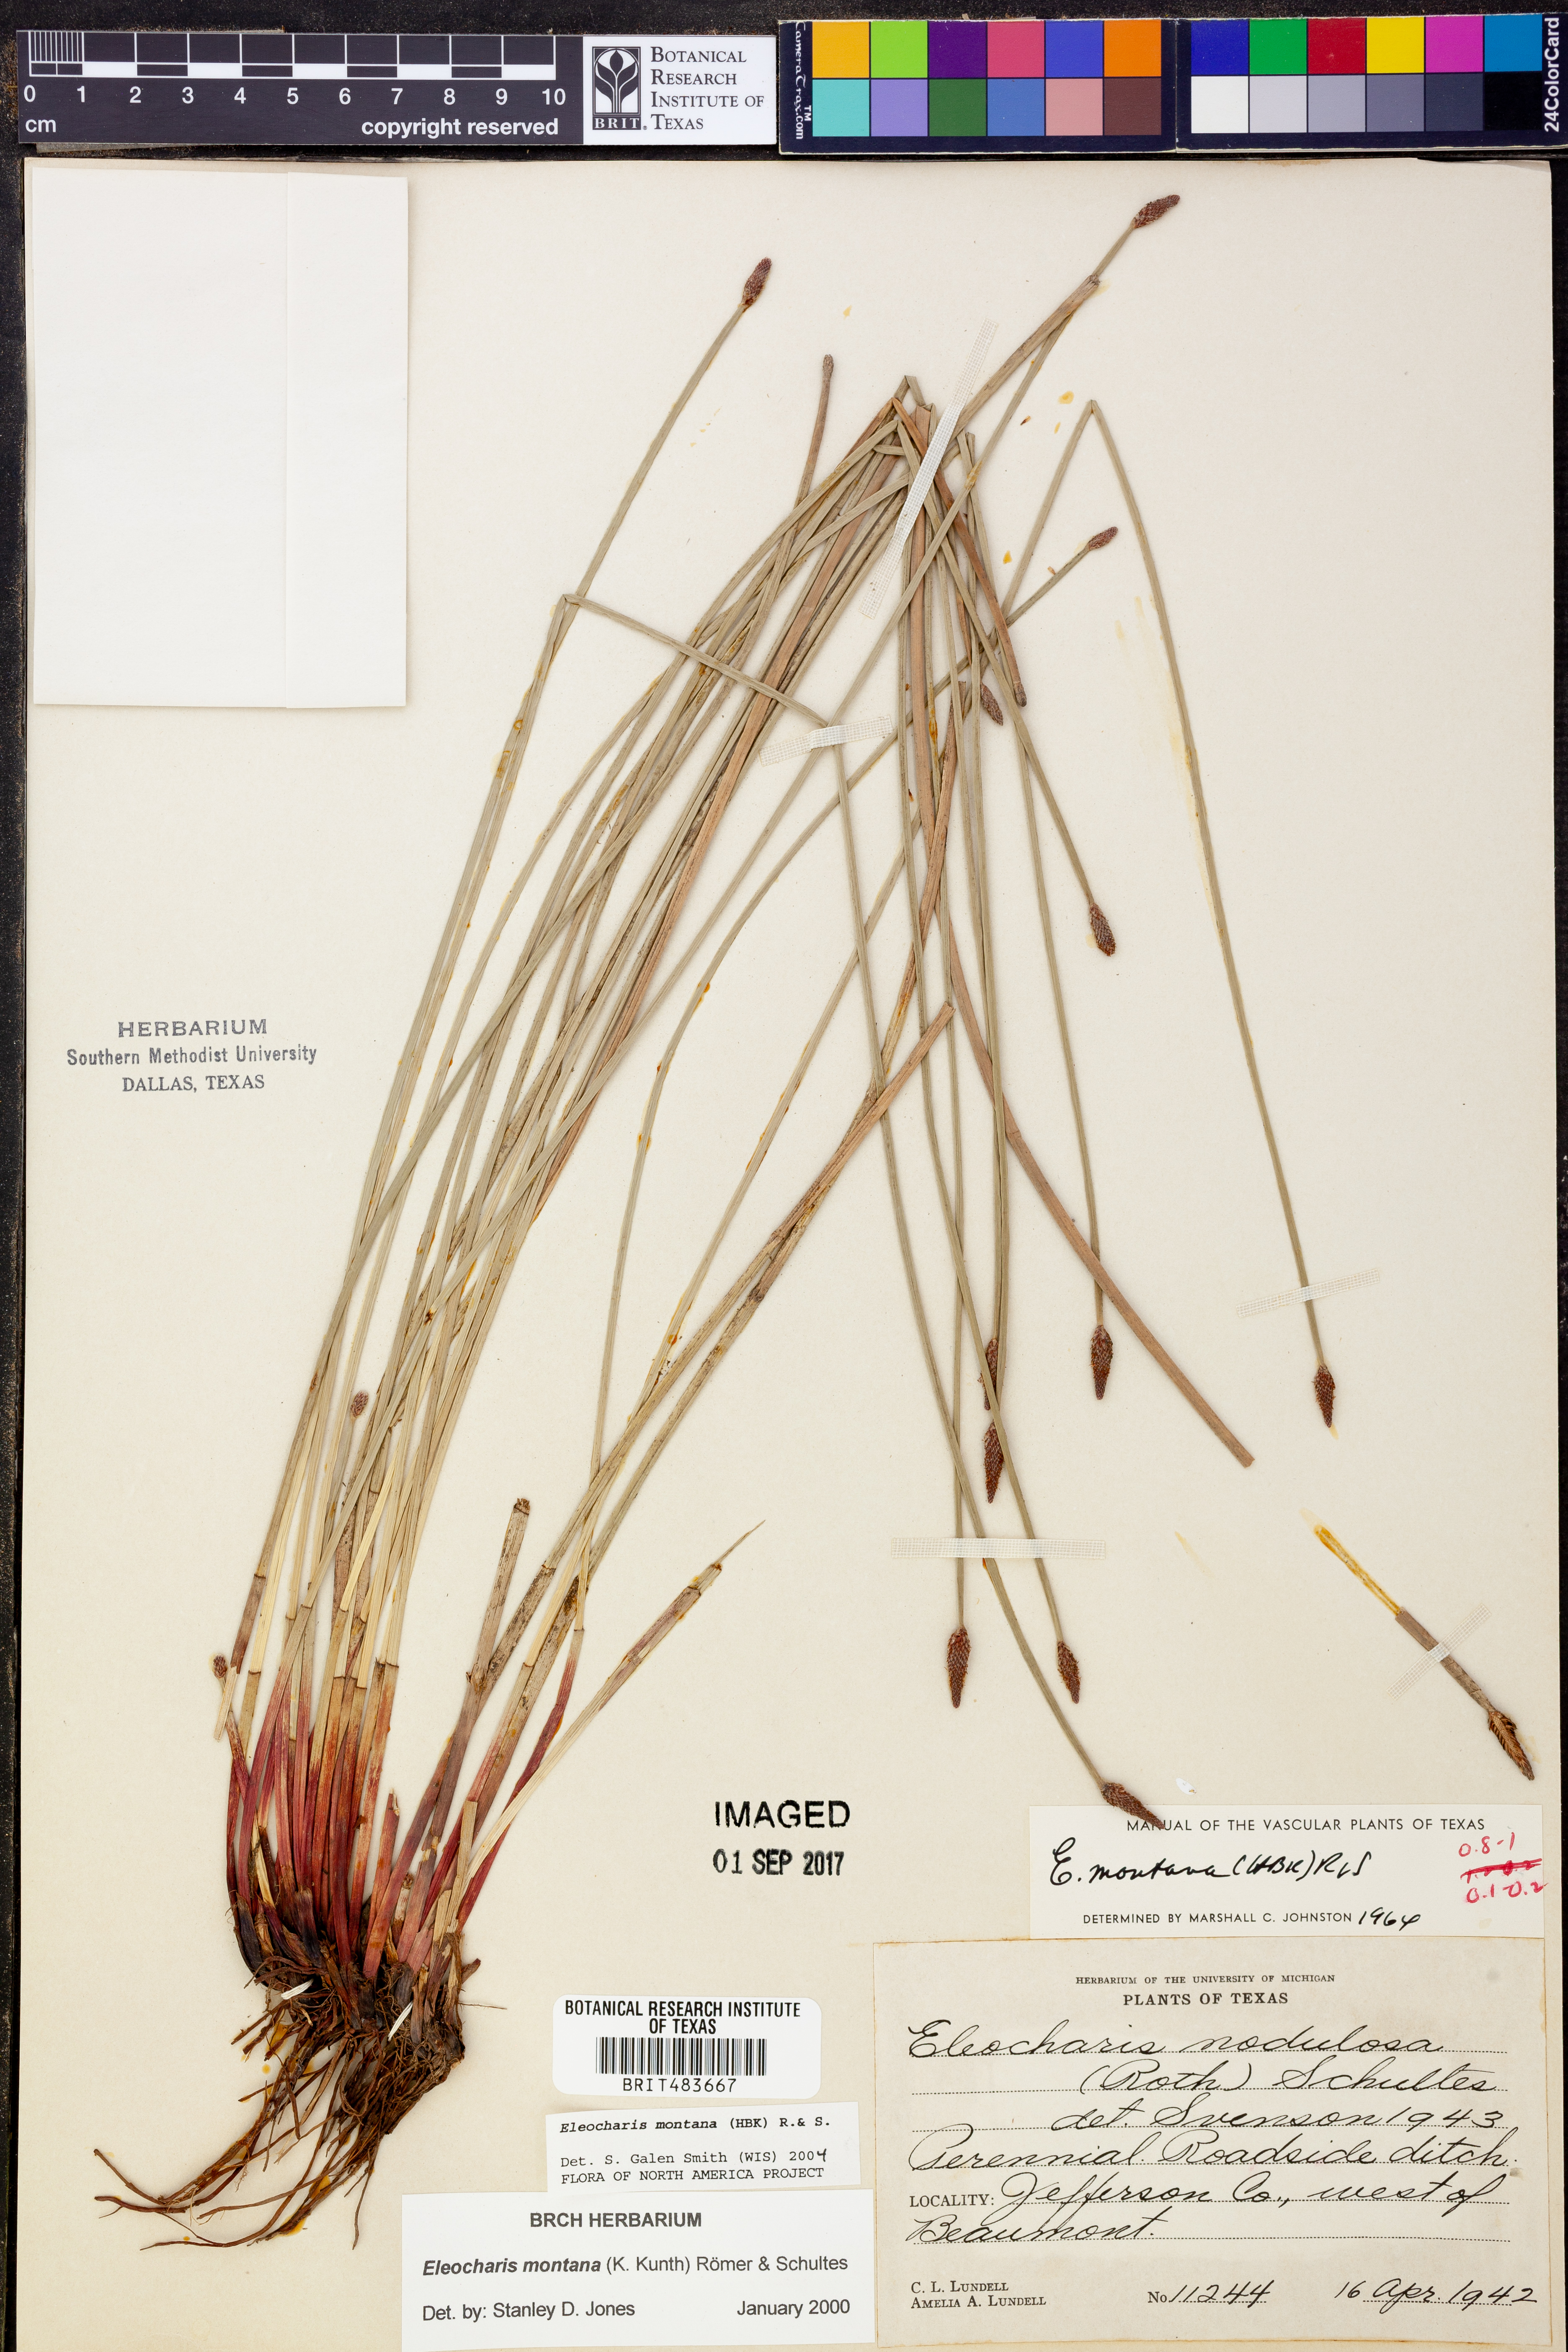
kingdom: Plantae
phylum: Tracheophyta
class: Liliopsida
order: Poales
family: Cyperaceae
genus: Eleocharis
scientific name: Eleocharis montana
